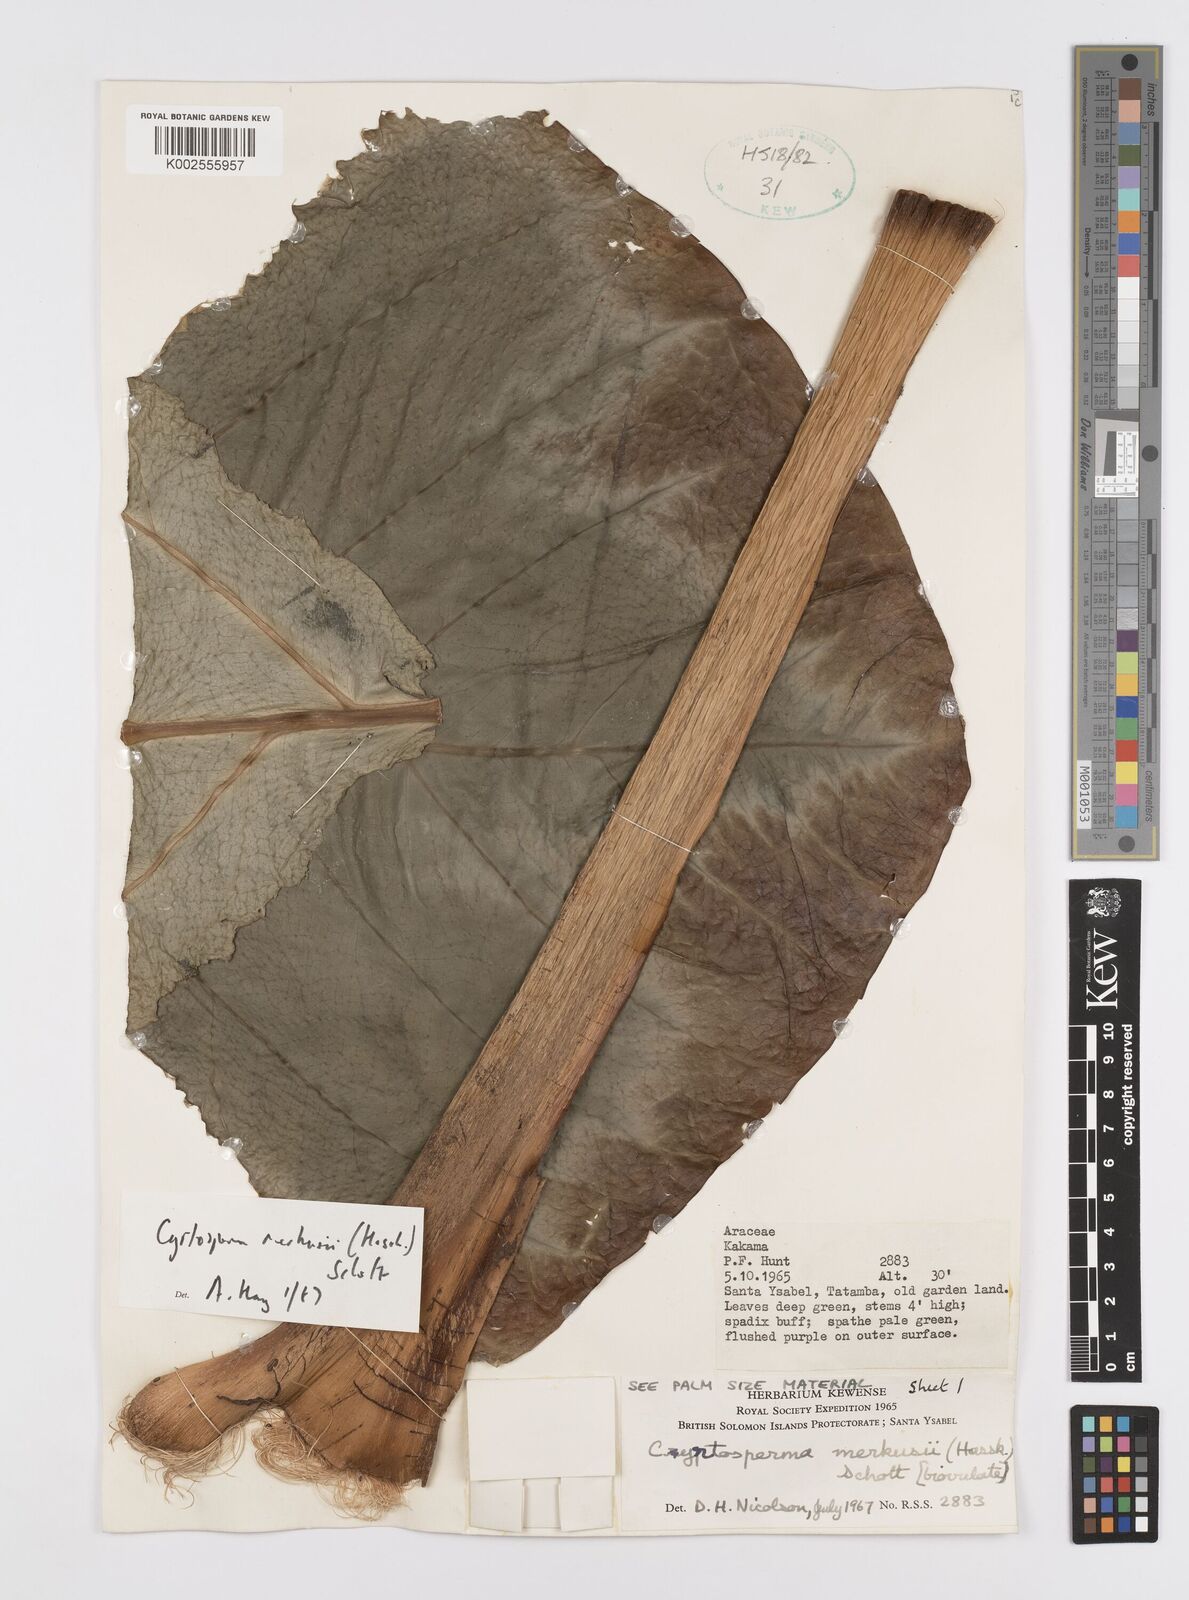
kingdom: Plantae
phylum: Tracheophyta
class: Liliopsida
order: Alismatales
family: Araceae
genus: Cyrtosperma
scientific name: Cyrtosperma merkusii
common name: Giant swamp-taro
